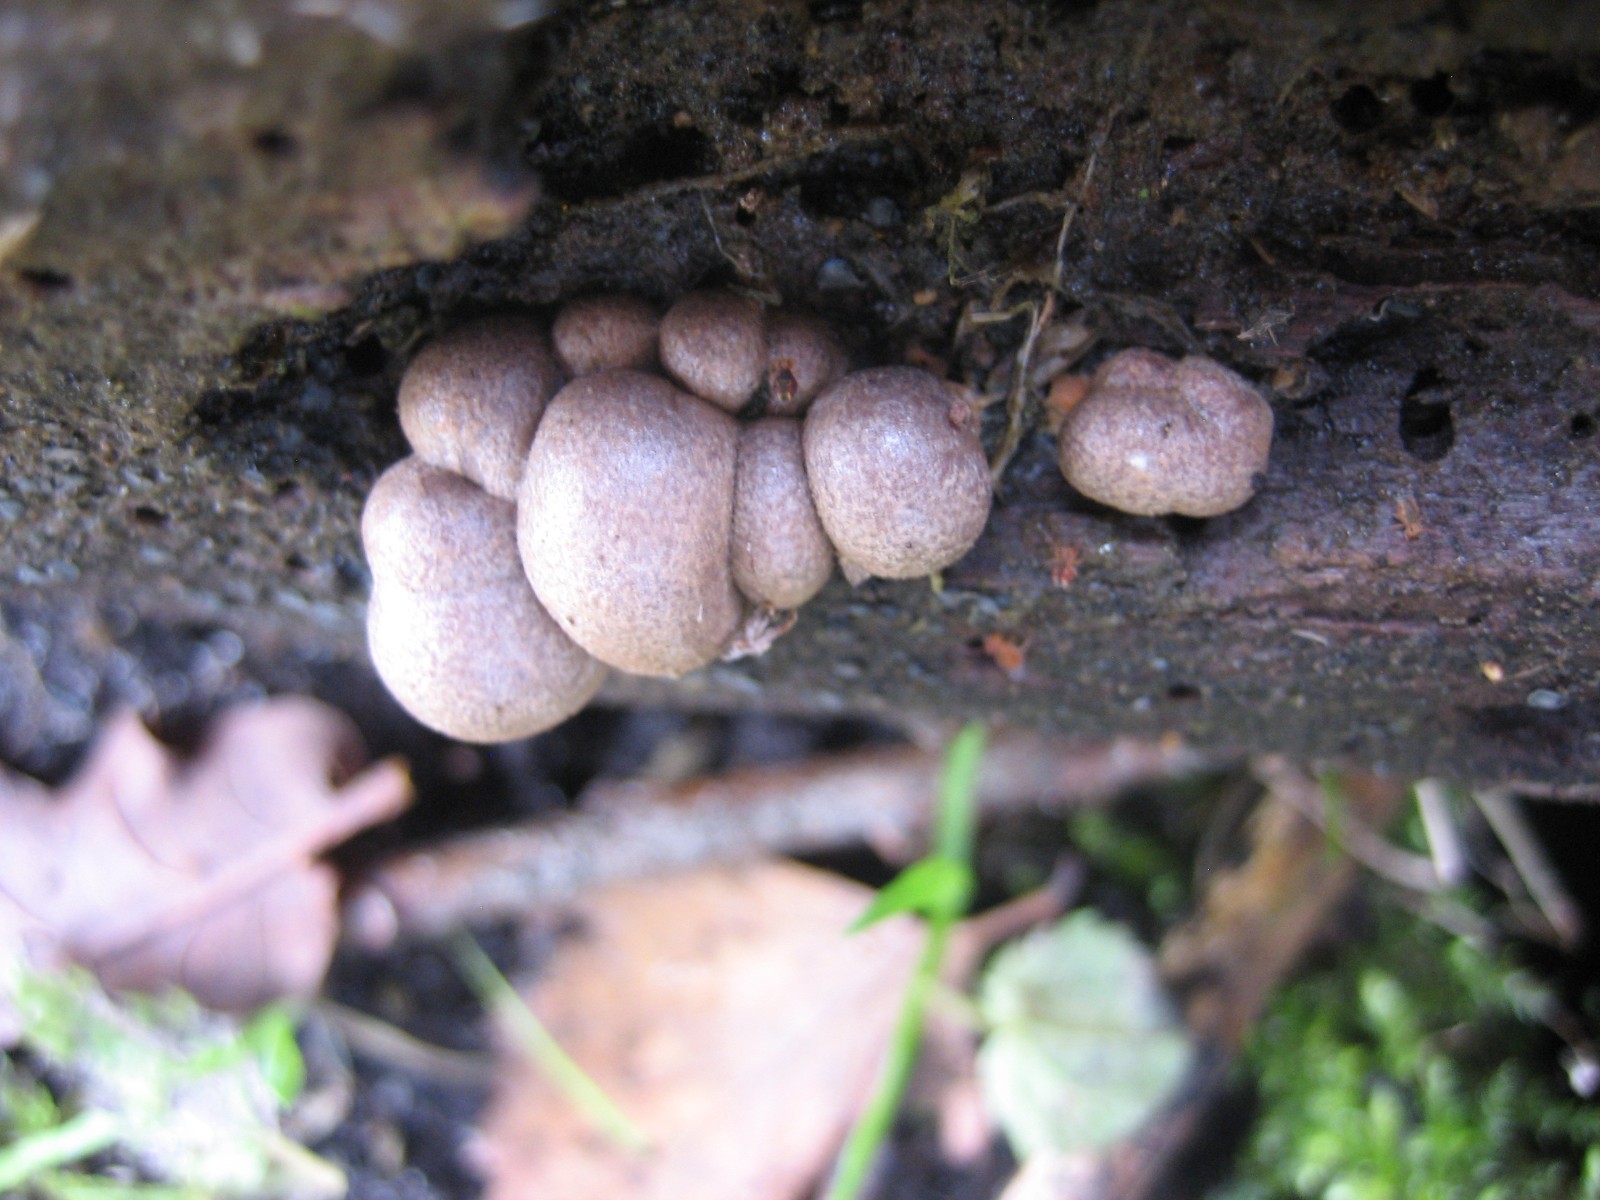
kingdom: Protozoa
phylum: Mycetozoa
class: Myxomycetes
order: Cribrariales
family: Tubiferaceae
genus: Lycogala
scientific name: Lycogala epidendrum
